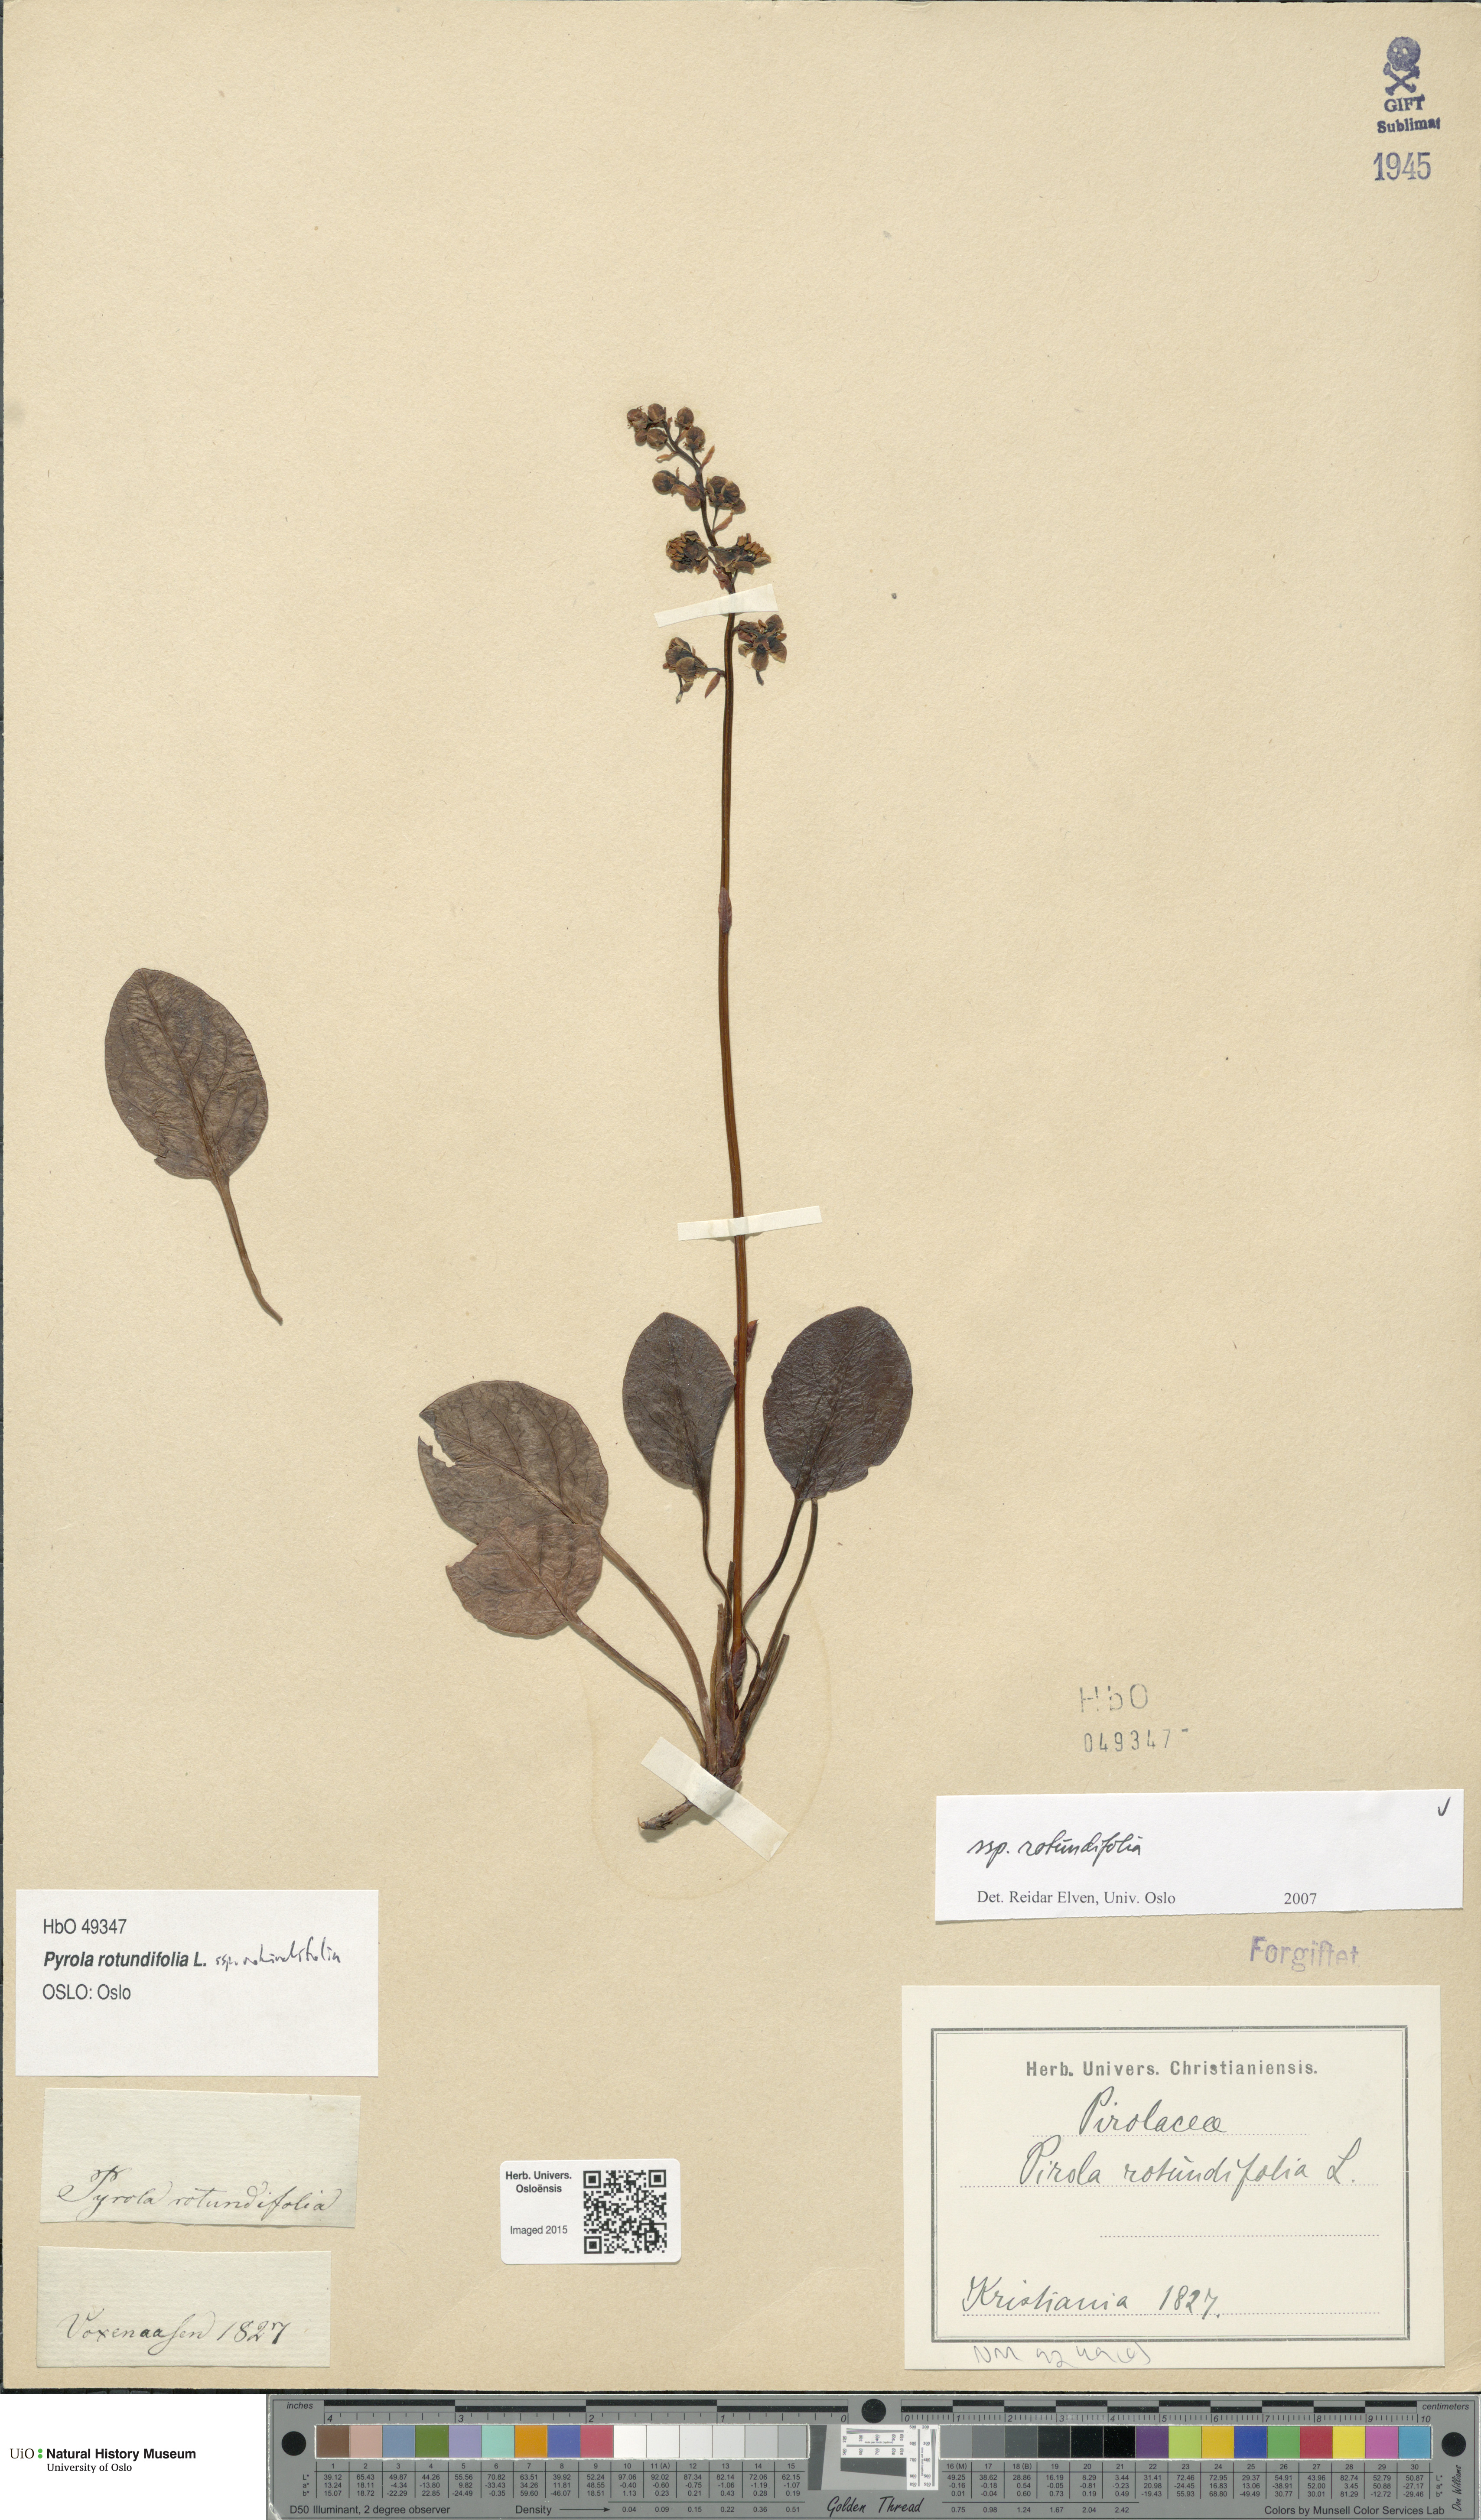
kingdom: Plantae
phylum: Tracheophyta
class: Magnoliopsida
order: Ericales
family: Ericaceae
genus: Pyrola
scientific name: Pyrola rotundifolia
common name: Round-leaved wintergreen
